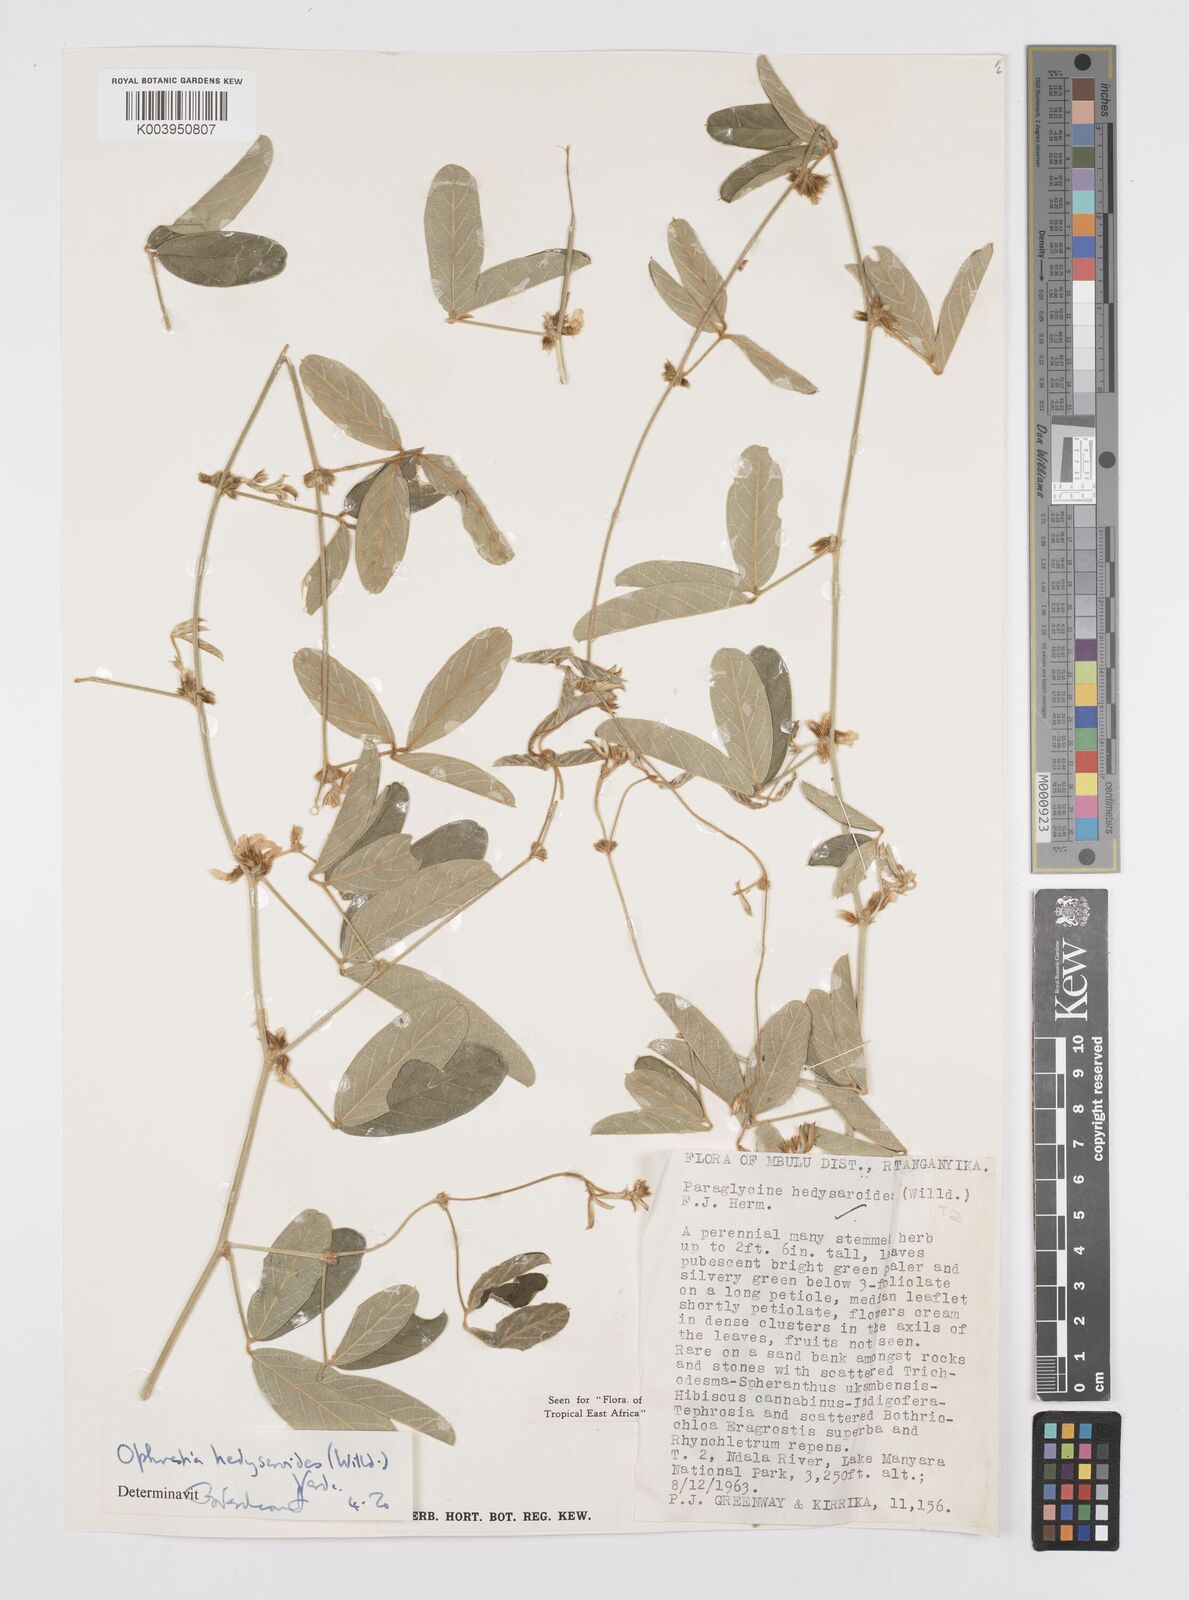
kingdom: Plantae
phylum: Tracheophyta
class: Magnoliopsida
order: Fabales
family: Fabaceae
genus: Ophrestia
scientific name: Ophrestia hedysaroides
